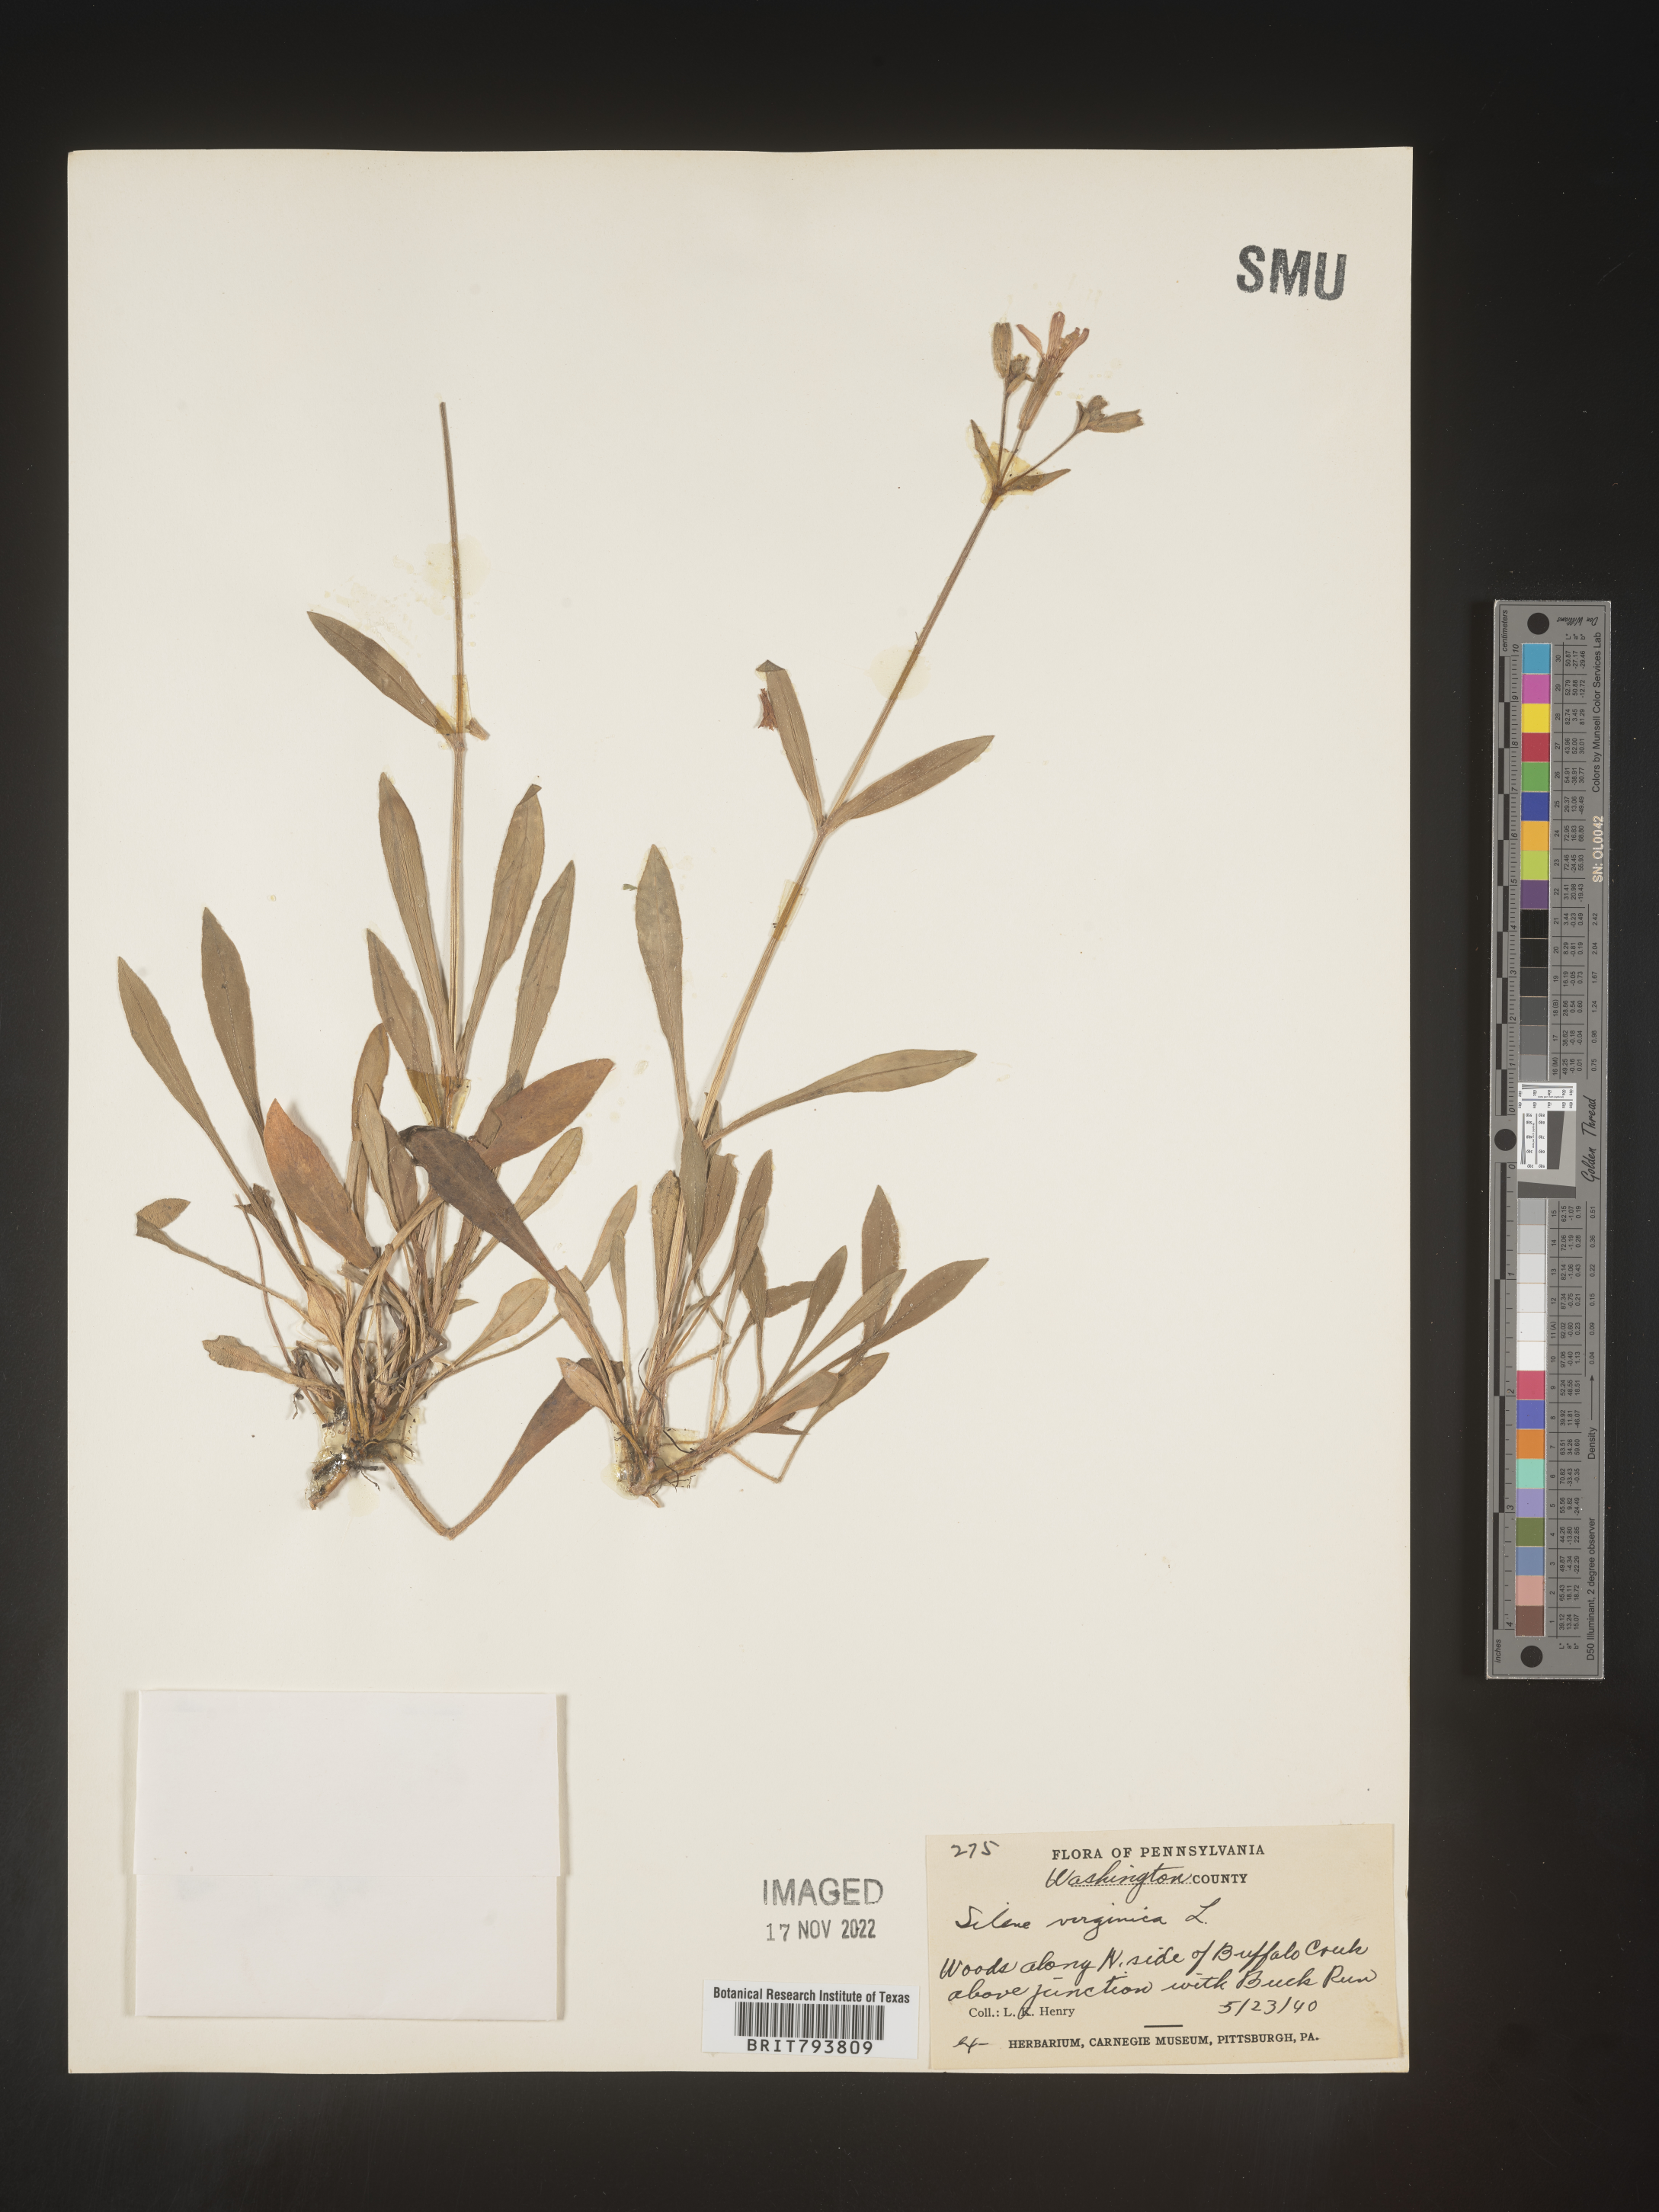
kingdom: Plantae
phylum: Tracheophyta
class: Magnoliopsida
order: Caryophyllales
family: Caryophyllaceae
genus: Silene
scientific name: Silene virginica
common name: Fire-pink
